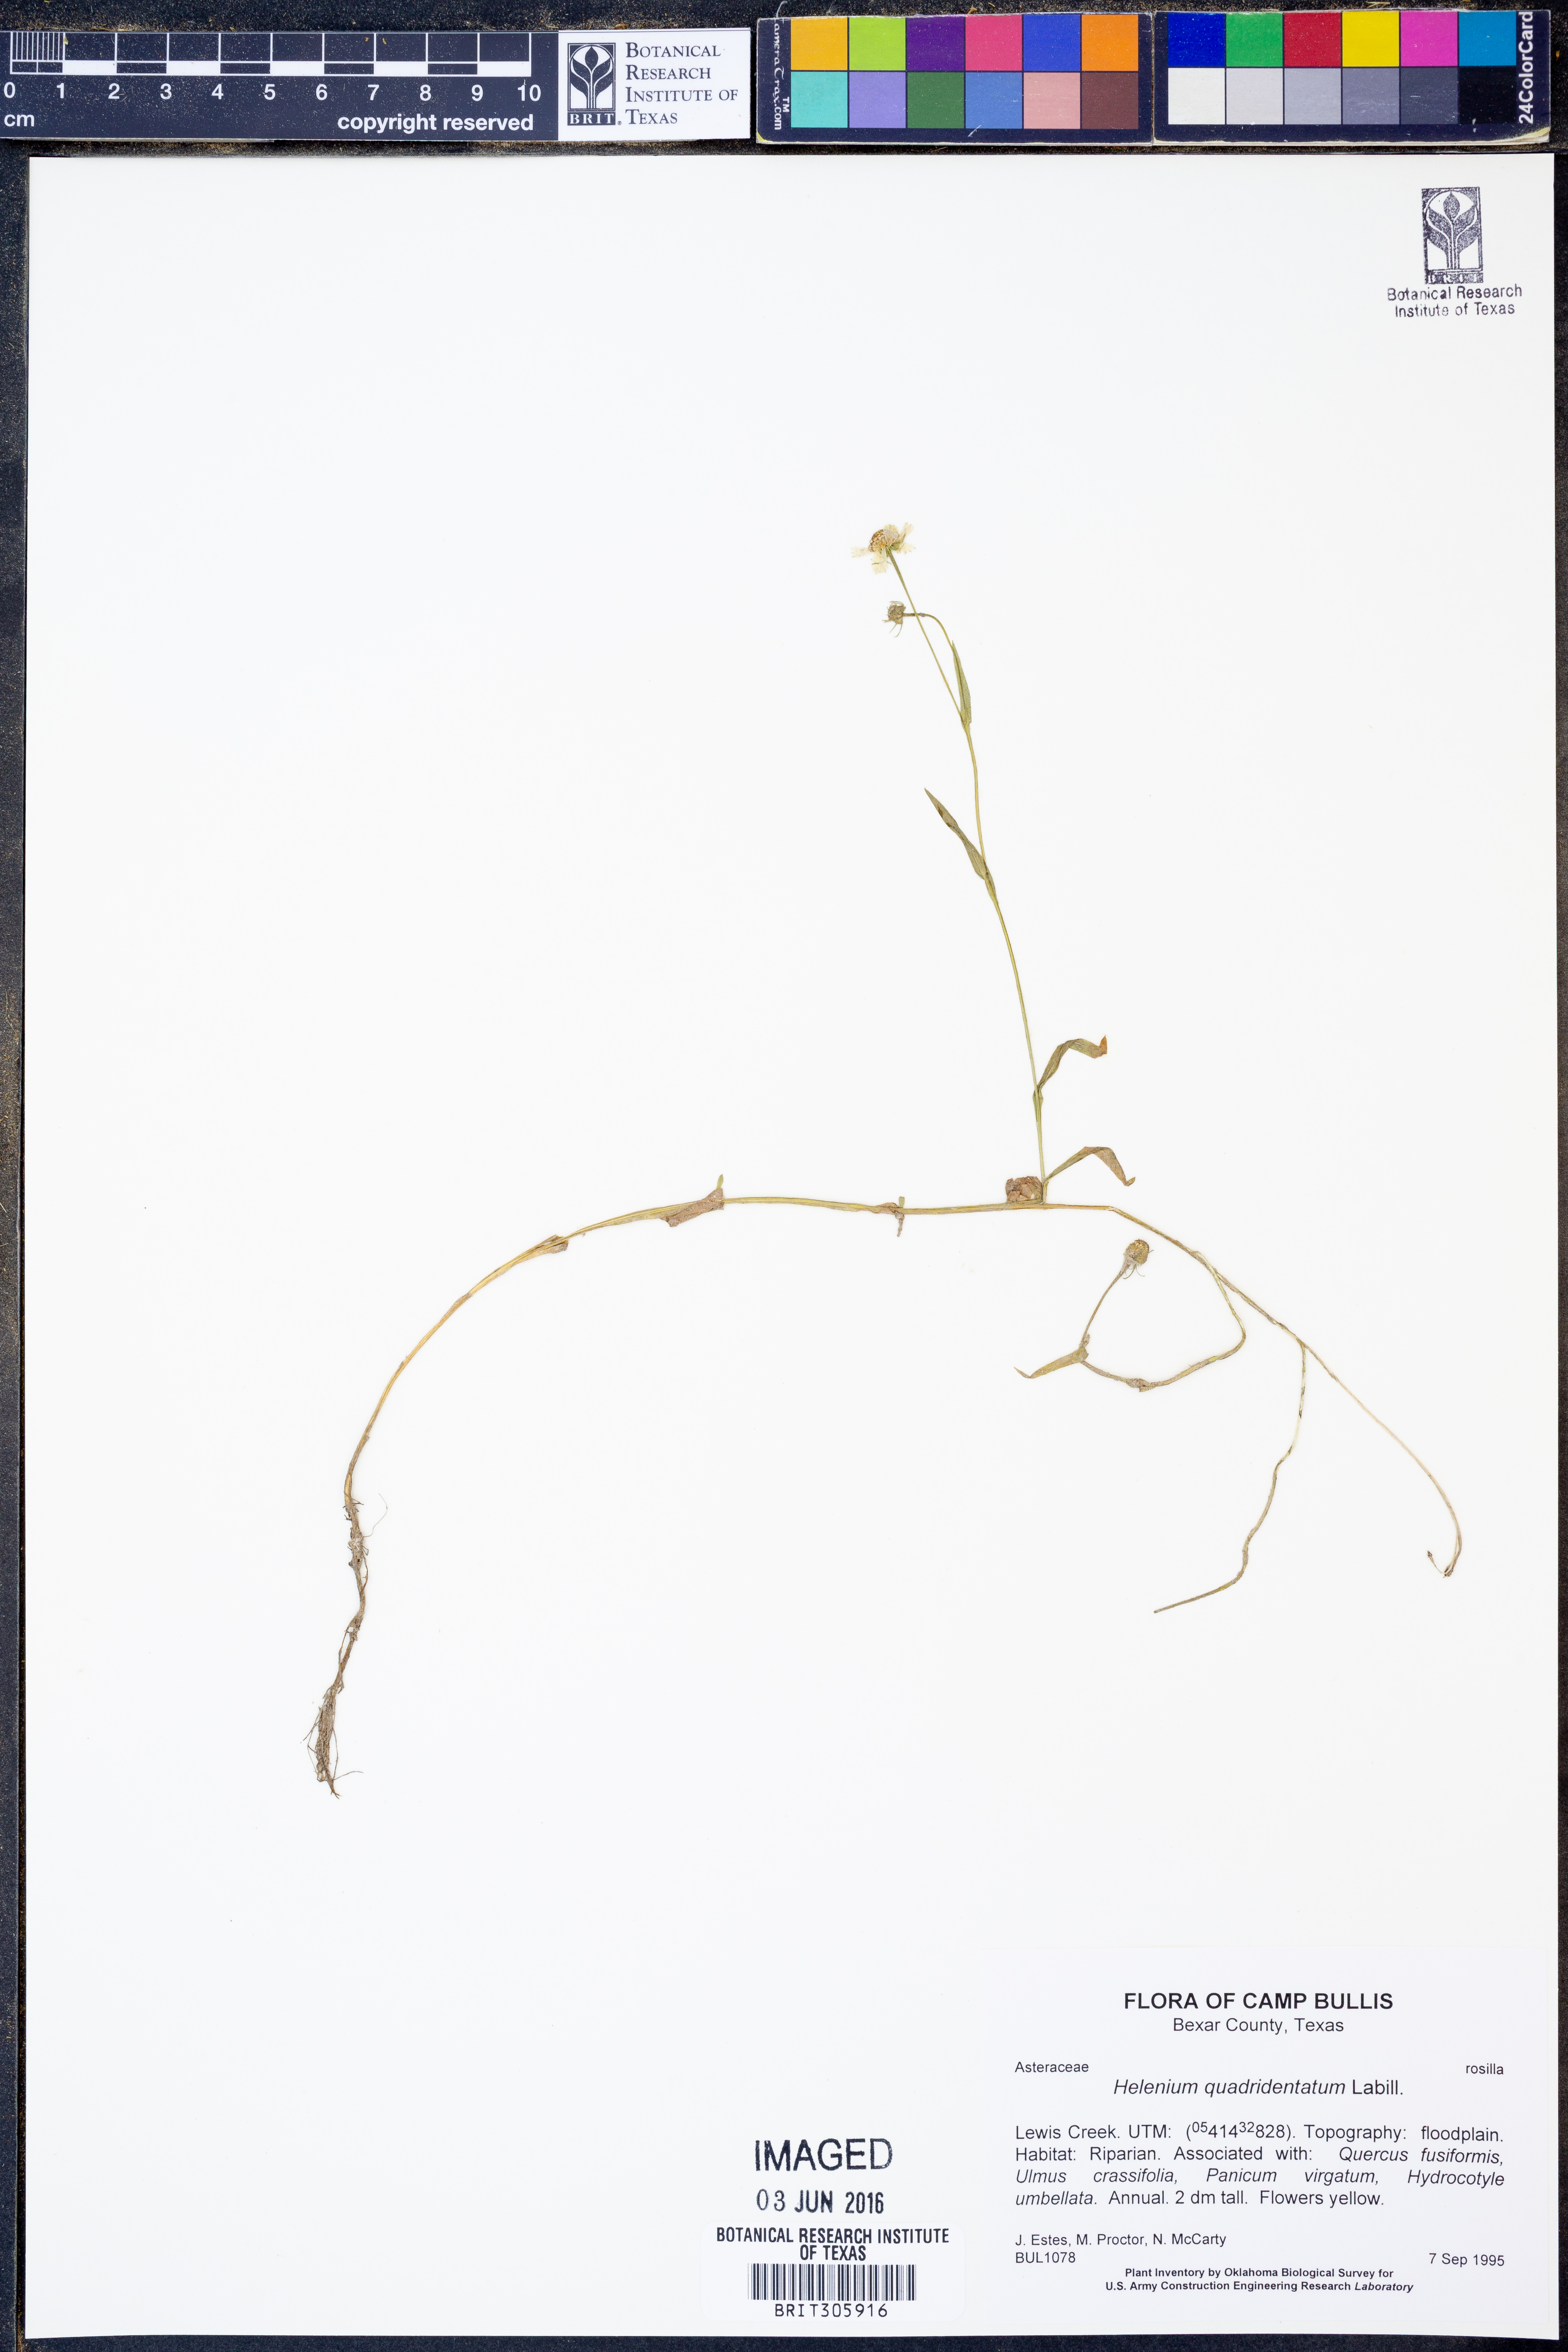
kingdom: Plantae
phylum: Tracheophyta
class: Magnoliopsida
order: Asterales
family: Asteraceae
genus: Helenium
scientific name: Helenium quadridentatum
